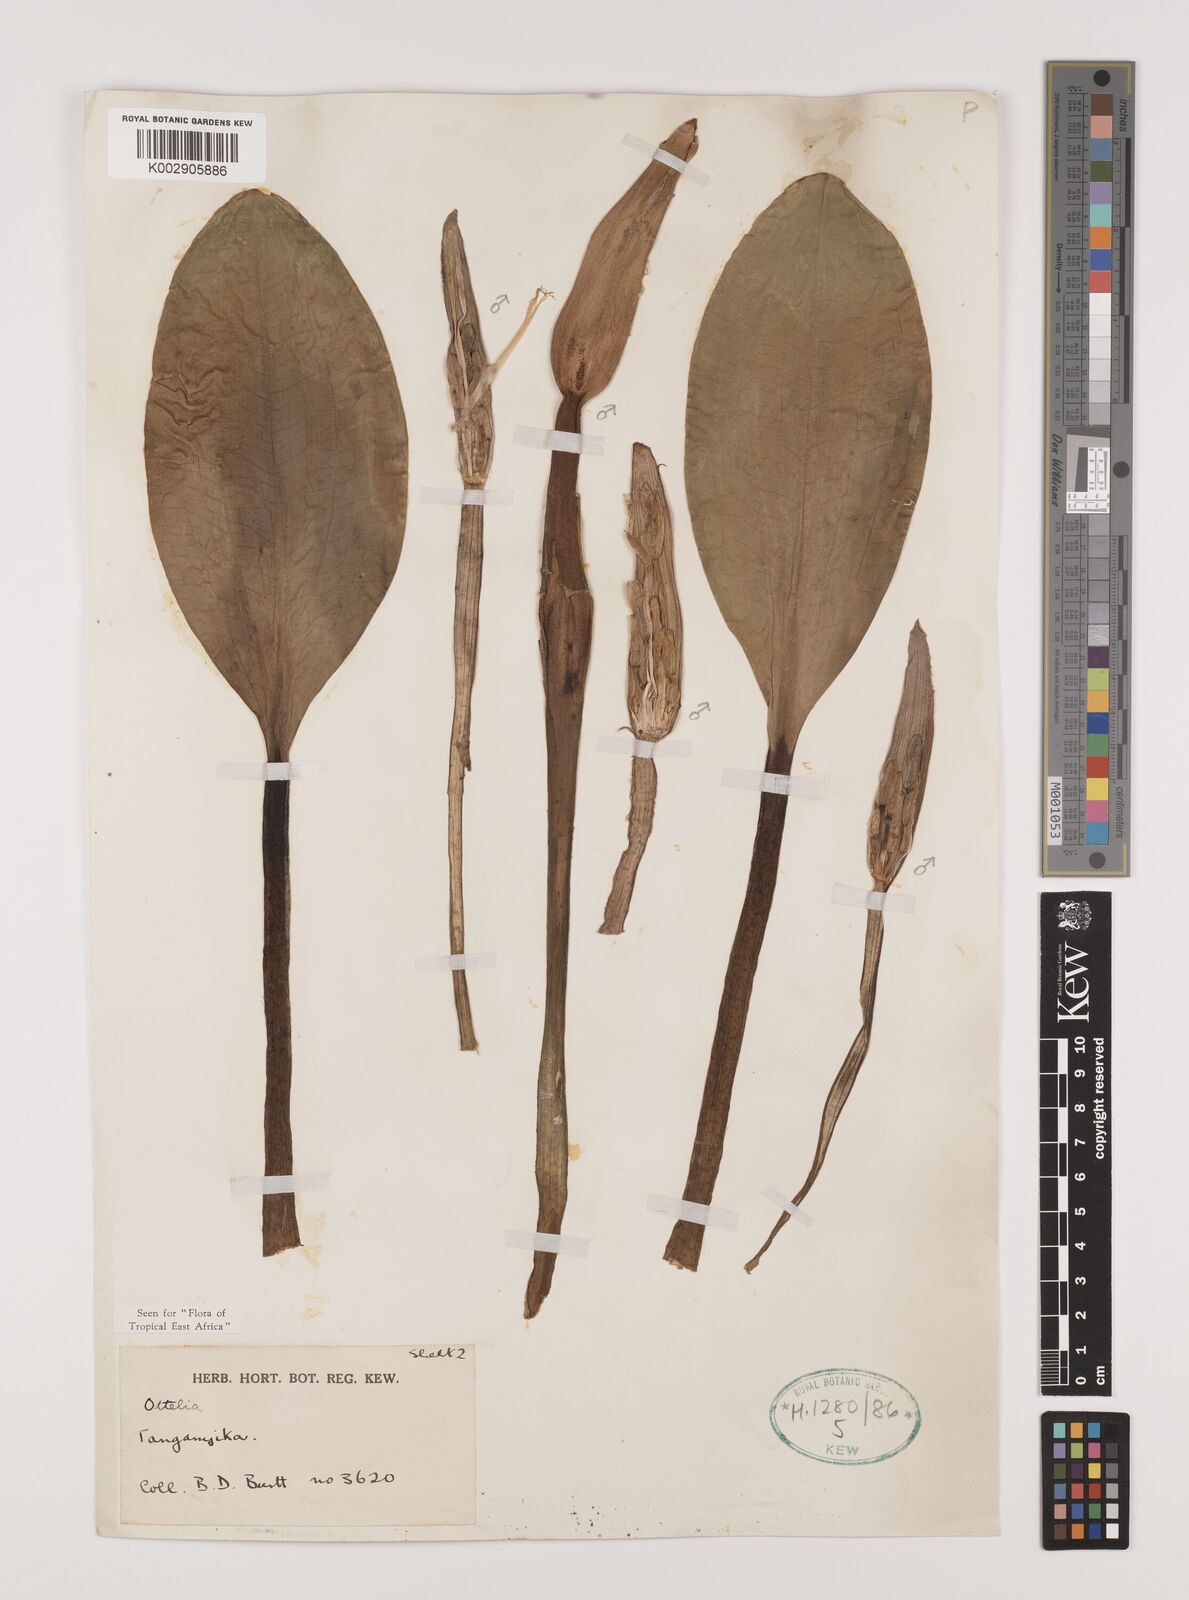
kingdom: Plantae
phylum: Tracheophyta
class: Liliopsida
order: Alismatales
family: Hydrocharitaceae
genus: Ottelia
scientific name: Ottelia fischeri
